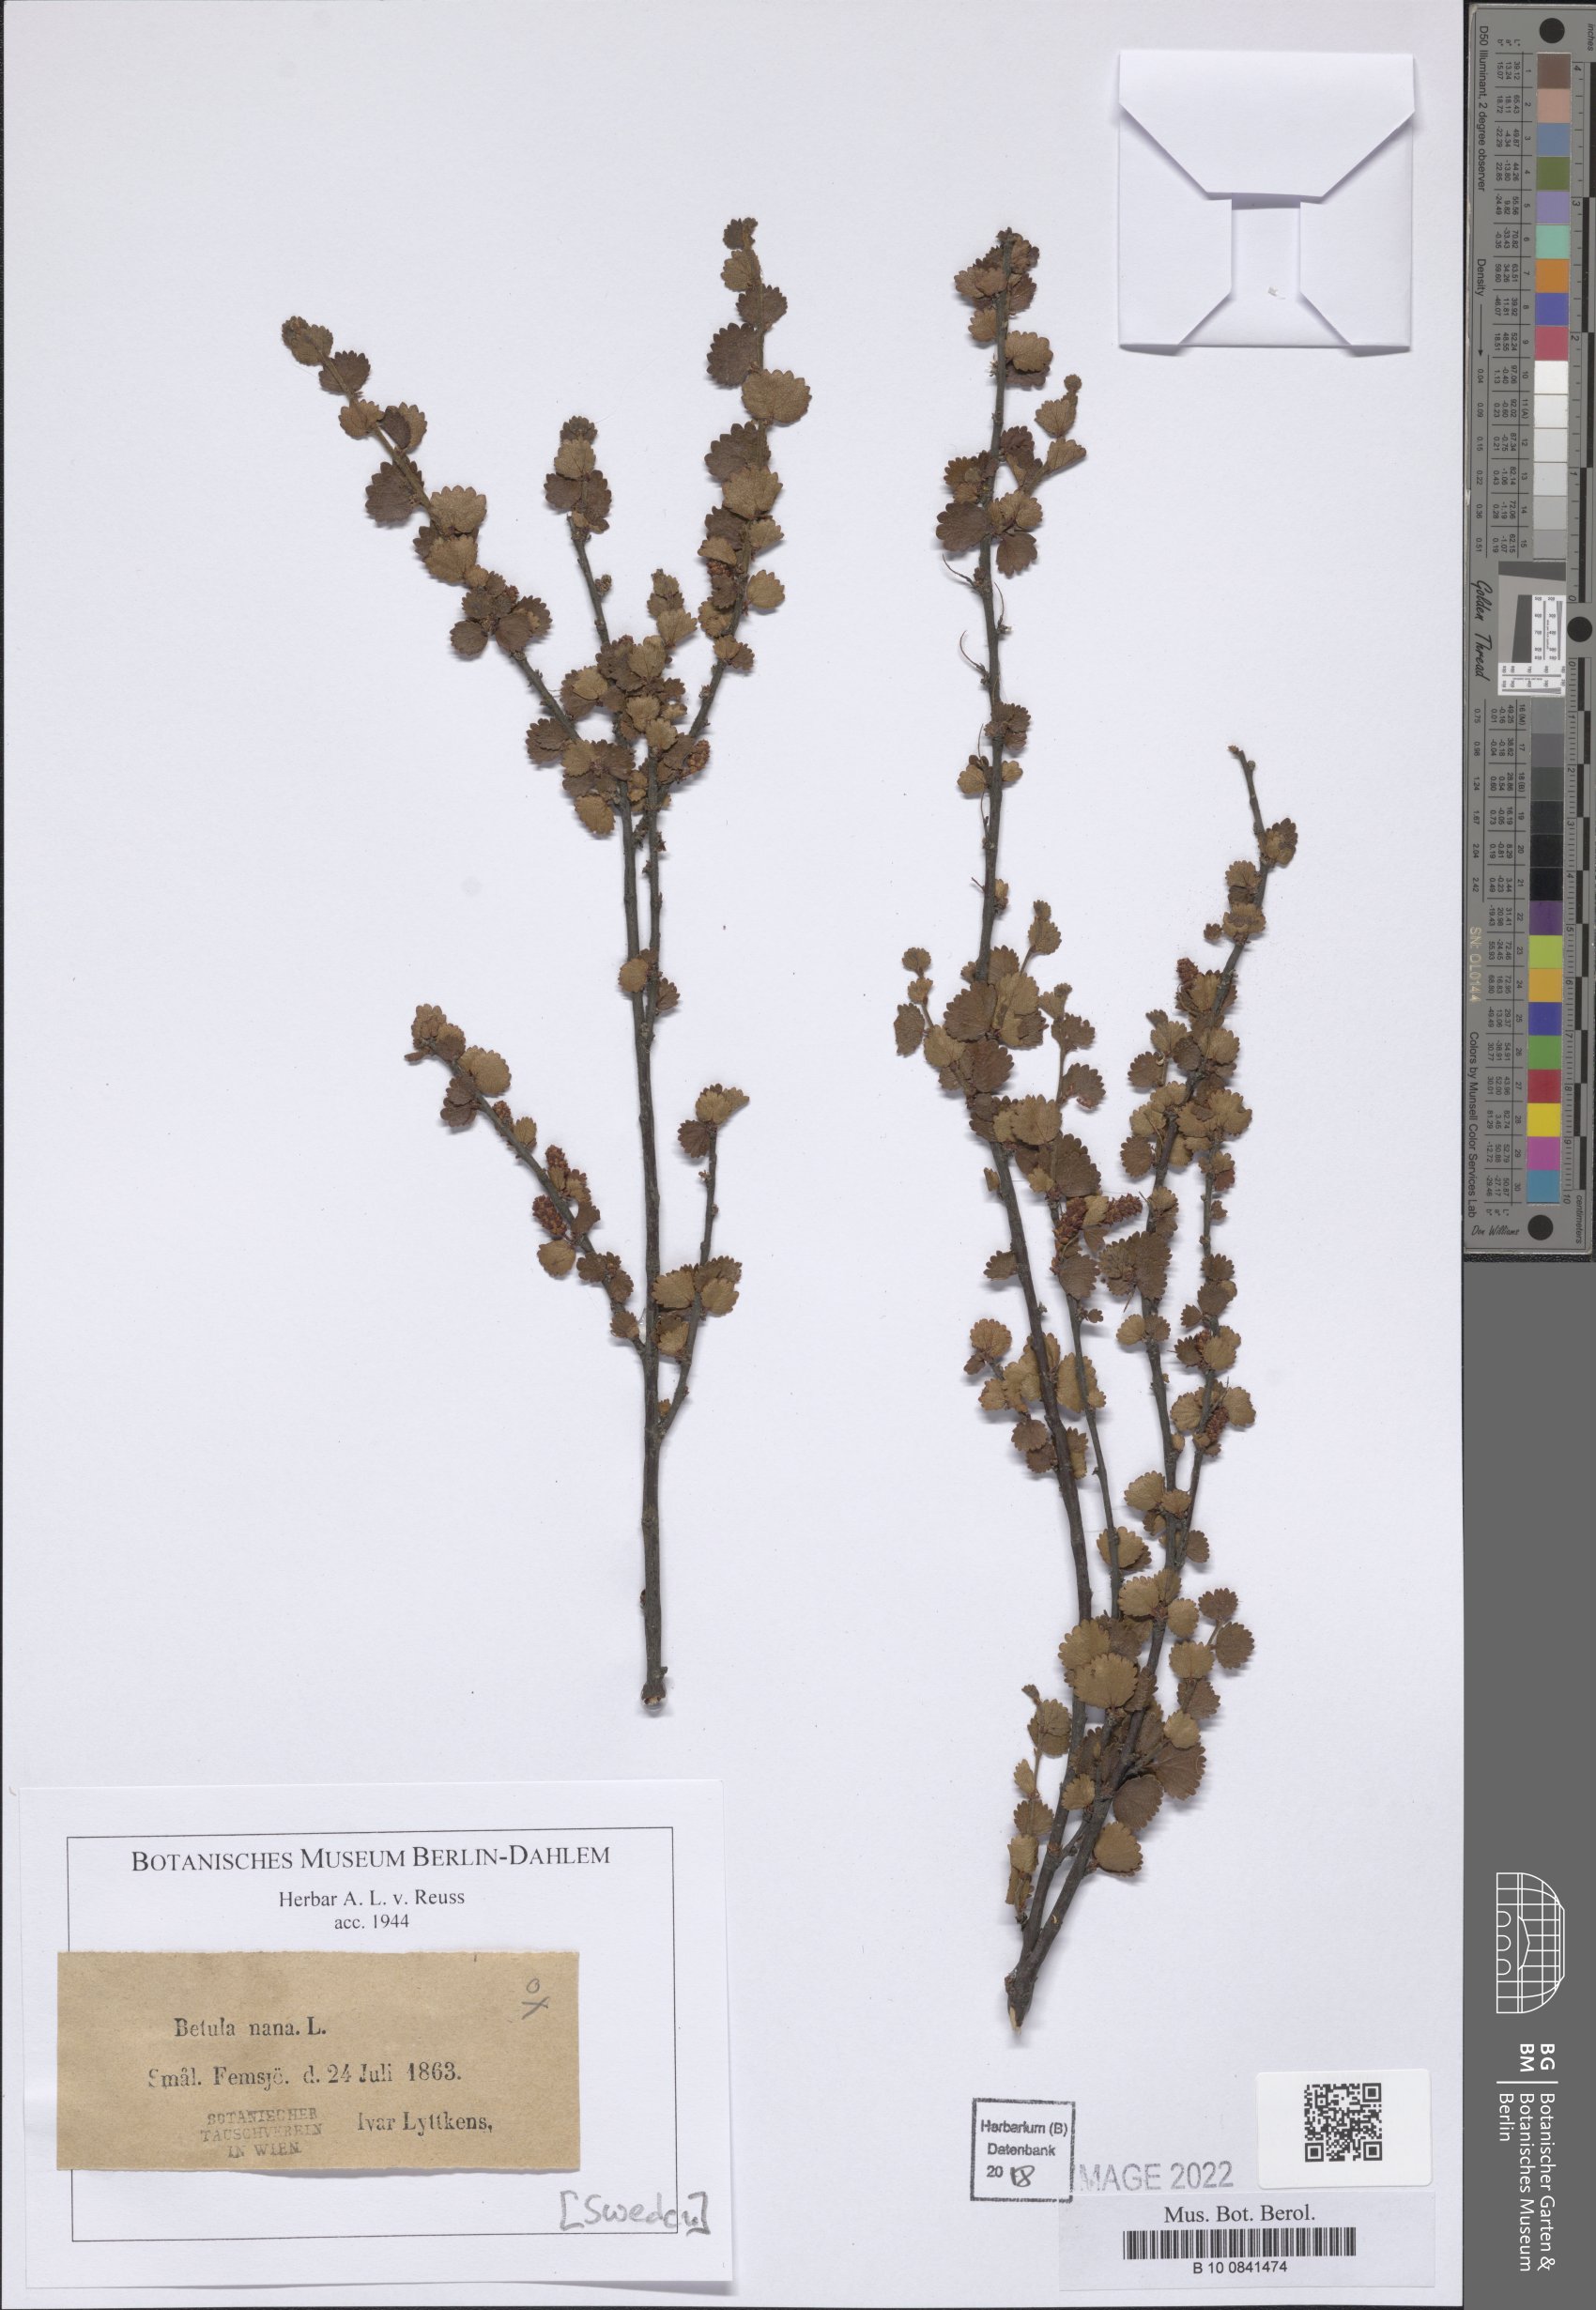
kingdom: Plantae
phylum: Tracheophyta
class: Magnoliopsida
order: Fagales
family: Betulaceae
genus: Betula
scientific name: Betula nana
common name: Arctic dwarf birch
